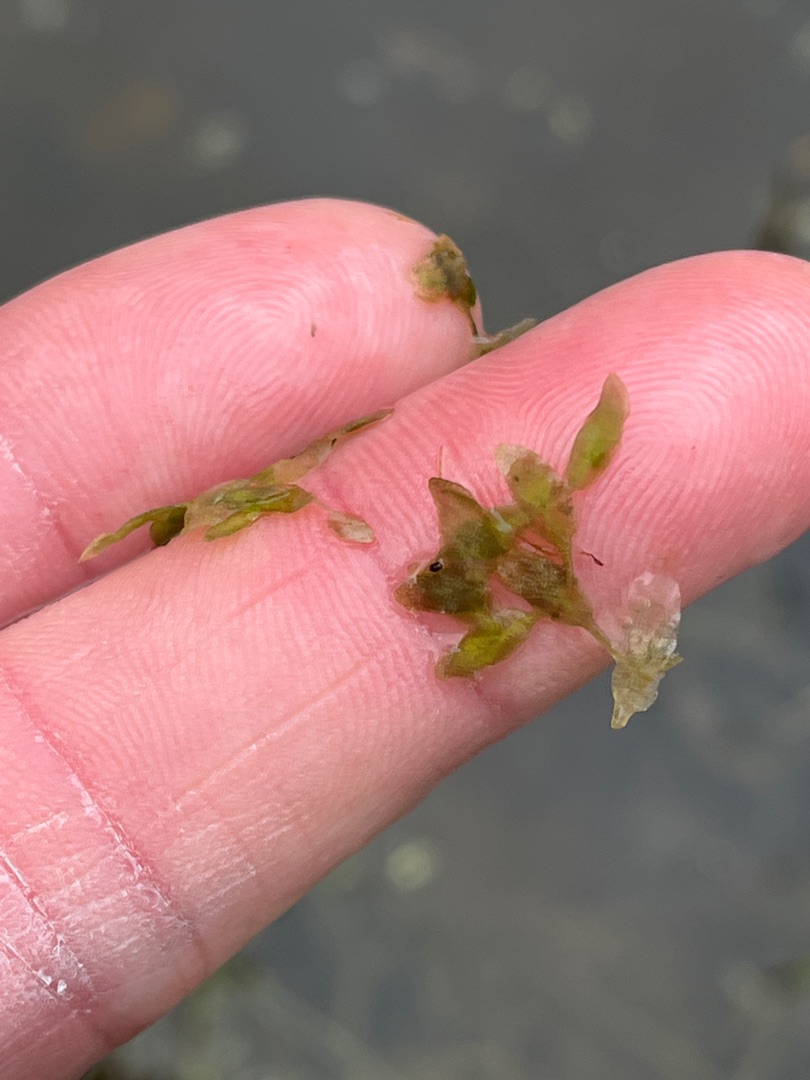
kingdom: Plantae
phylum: Tracheophyta
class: Liliopsida
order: Alismatales
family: Araceae
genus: Lemna
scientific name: Lemna trisulca
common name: Kors-andemad
